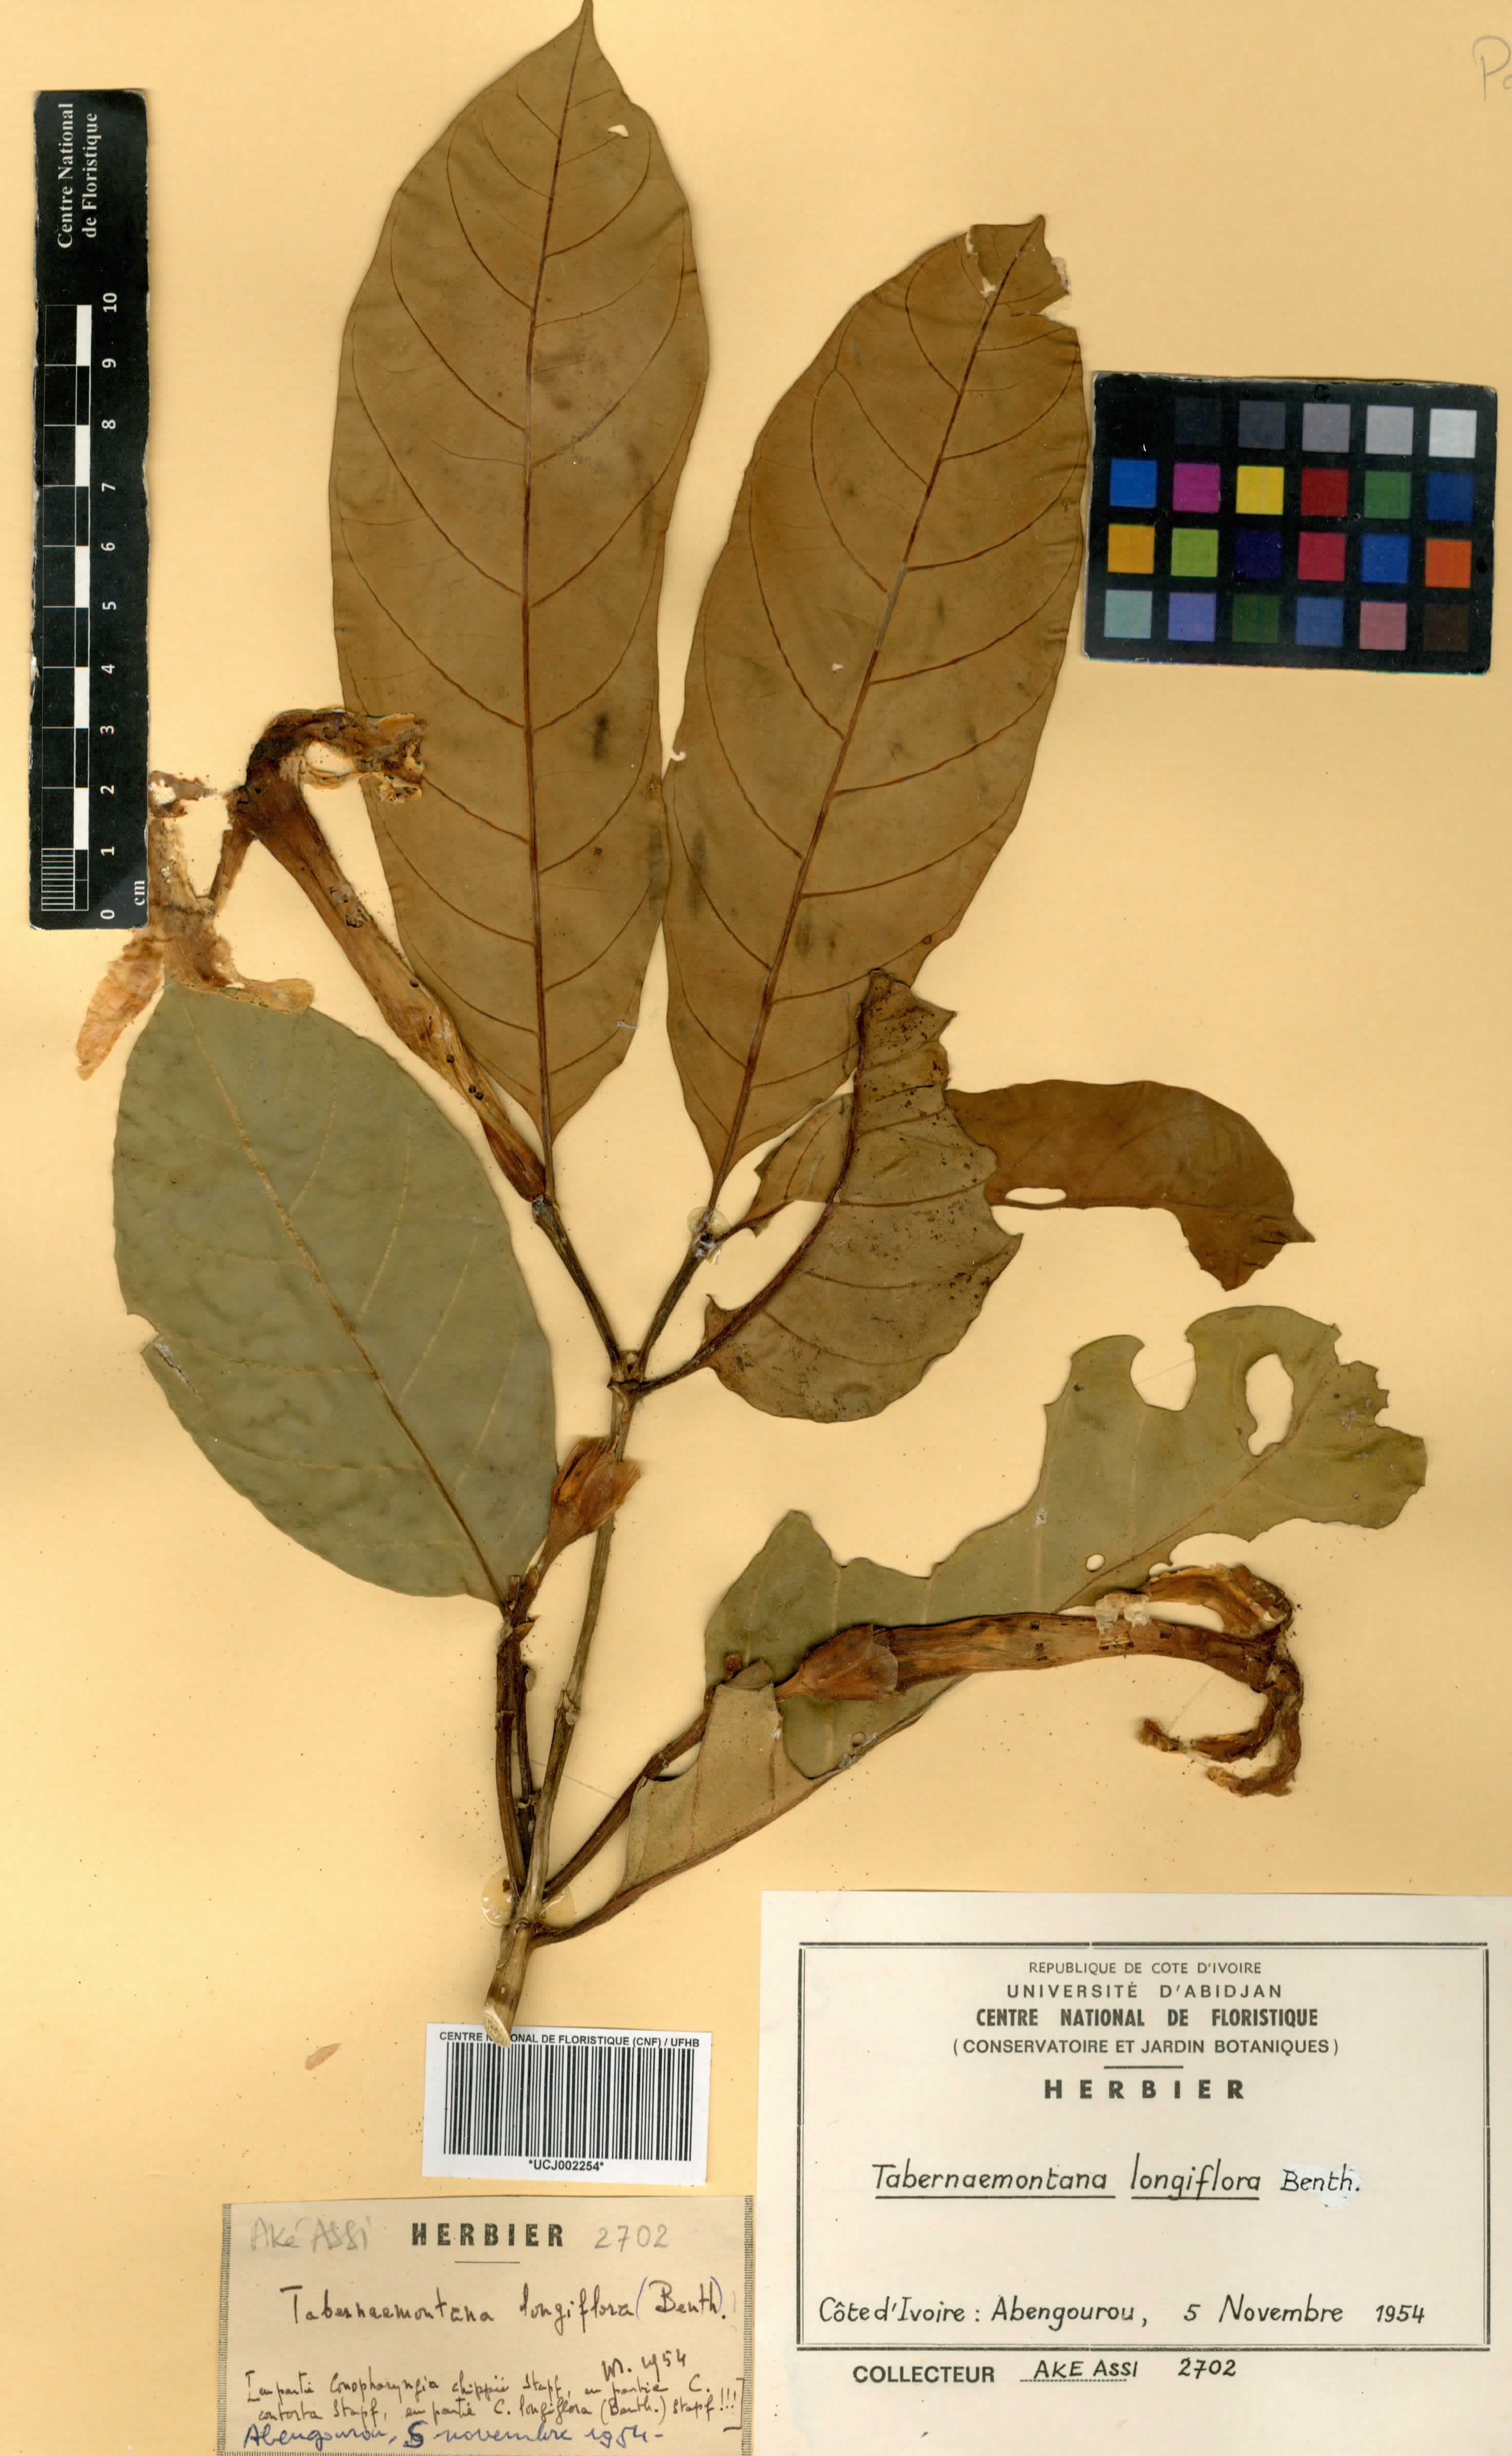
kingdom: Plantae
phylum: Tracheophyta
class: Magnoliopsida
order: Gentianales
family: Apocynaceae
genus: Tabernaemontana
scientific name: Tabernaemontana africana
